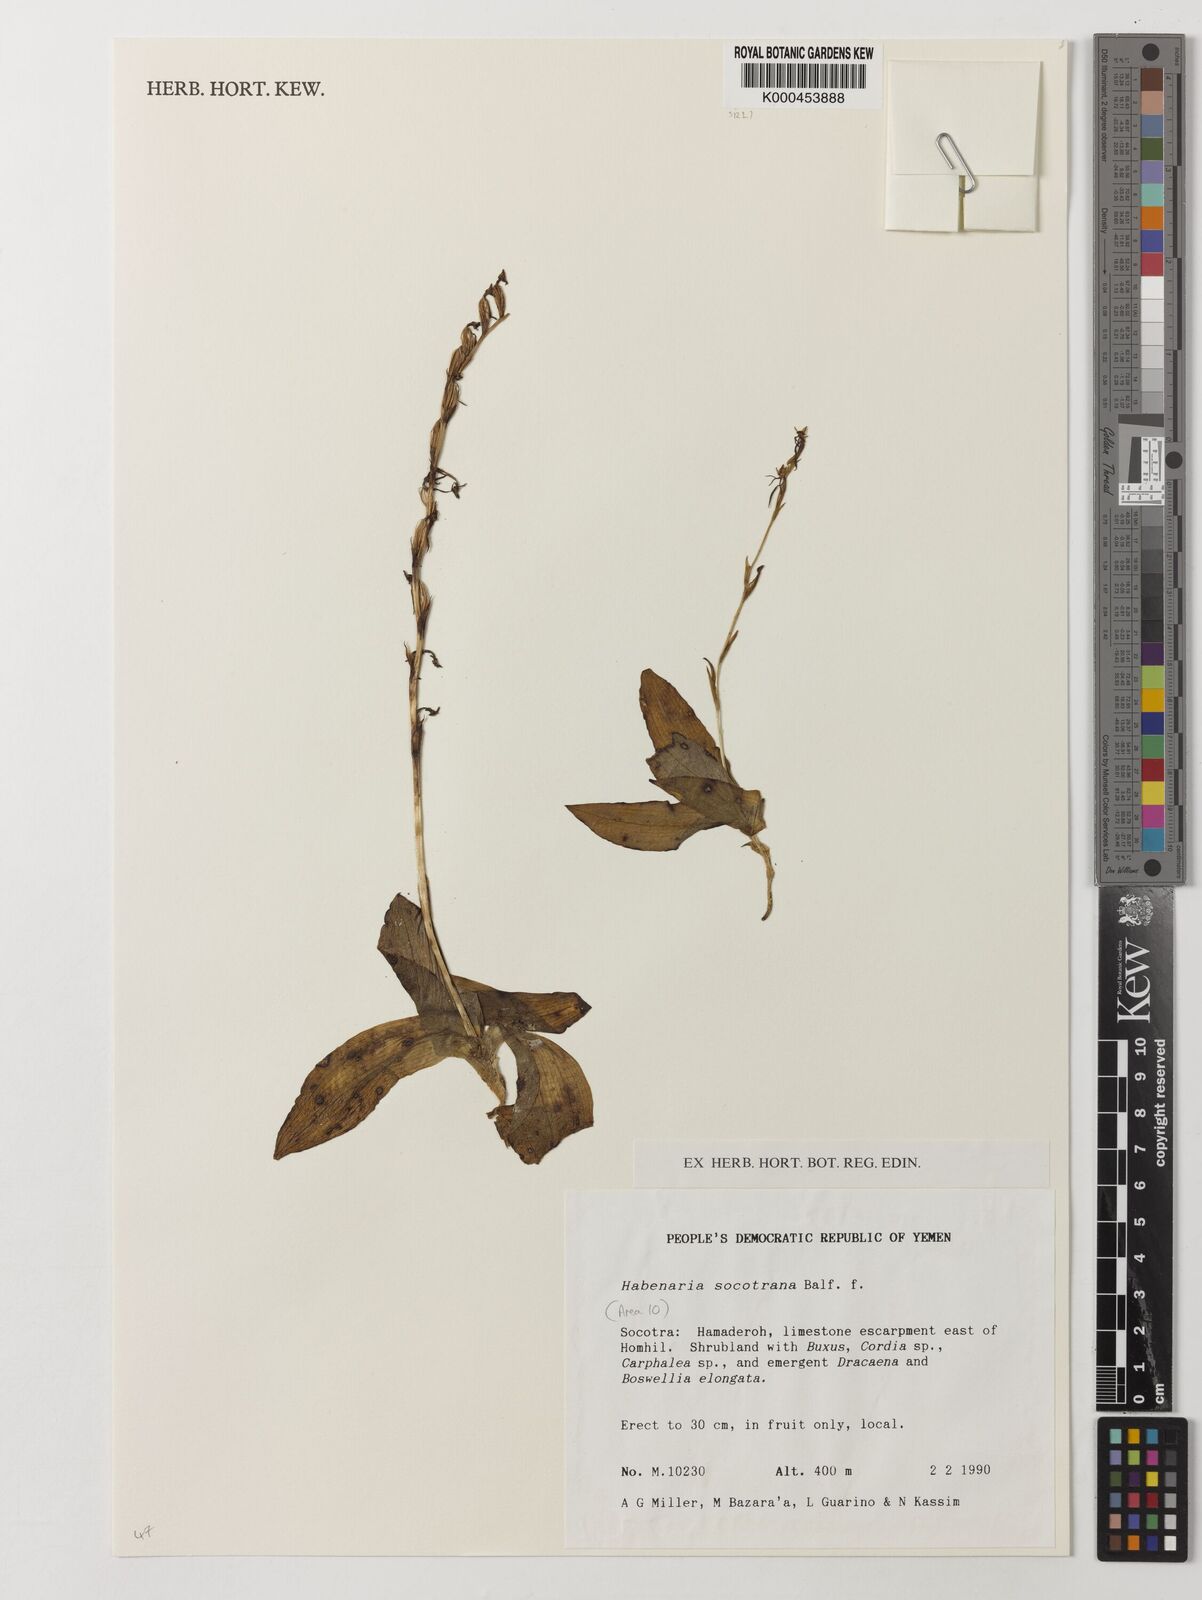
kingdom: Plantae
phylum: Tracheophyta
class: Liliopsida
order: Asparagales
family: Orchidaceae
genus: Habenaria
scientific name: Habenaria socotrana
